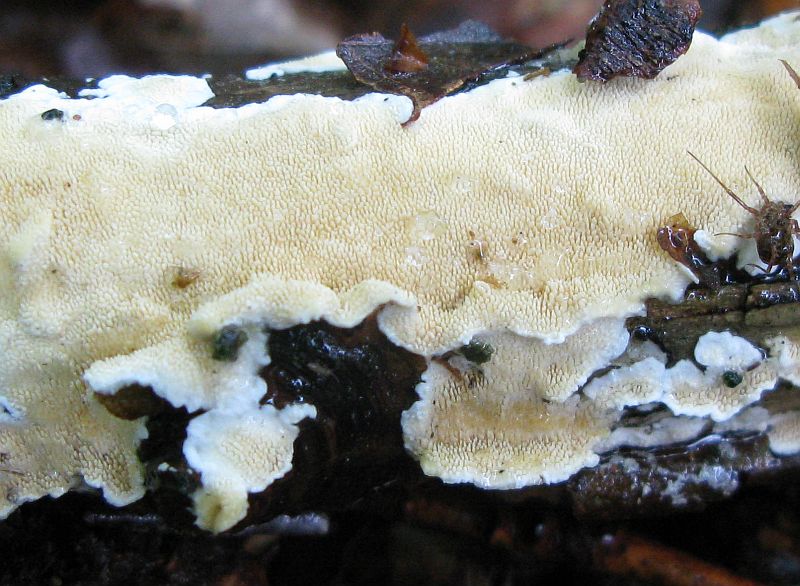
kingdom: Fungi
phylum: Basidiomycota
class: Agaricomycetes
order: Polyporales
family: Steccherinaceae
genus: Steccherinum
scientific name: Steccherinum ochraceum
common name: almindelig skønpig
